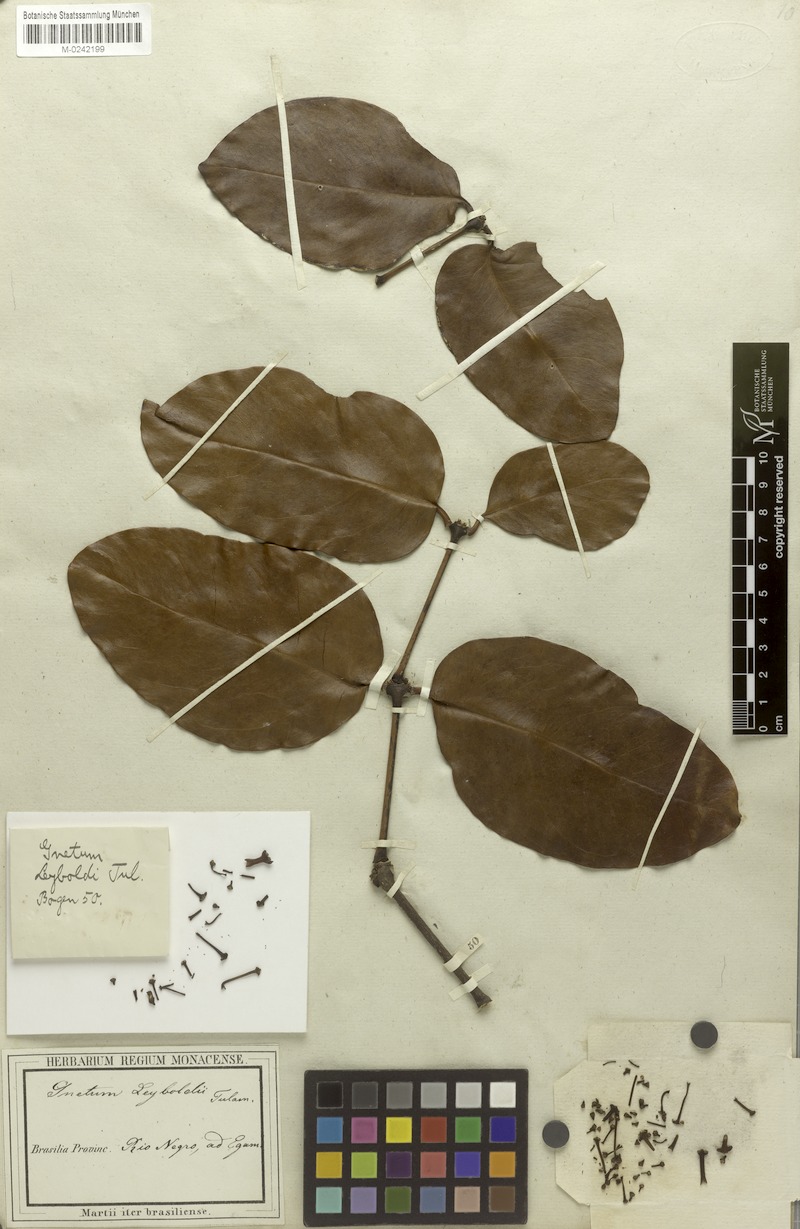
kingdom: Plantae
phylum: Tracheophyta
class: Gnetopsida
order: Gnetales
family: Gnetaceae
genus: Gnetum
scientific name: Gnetum leyboldii
